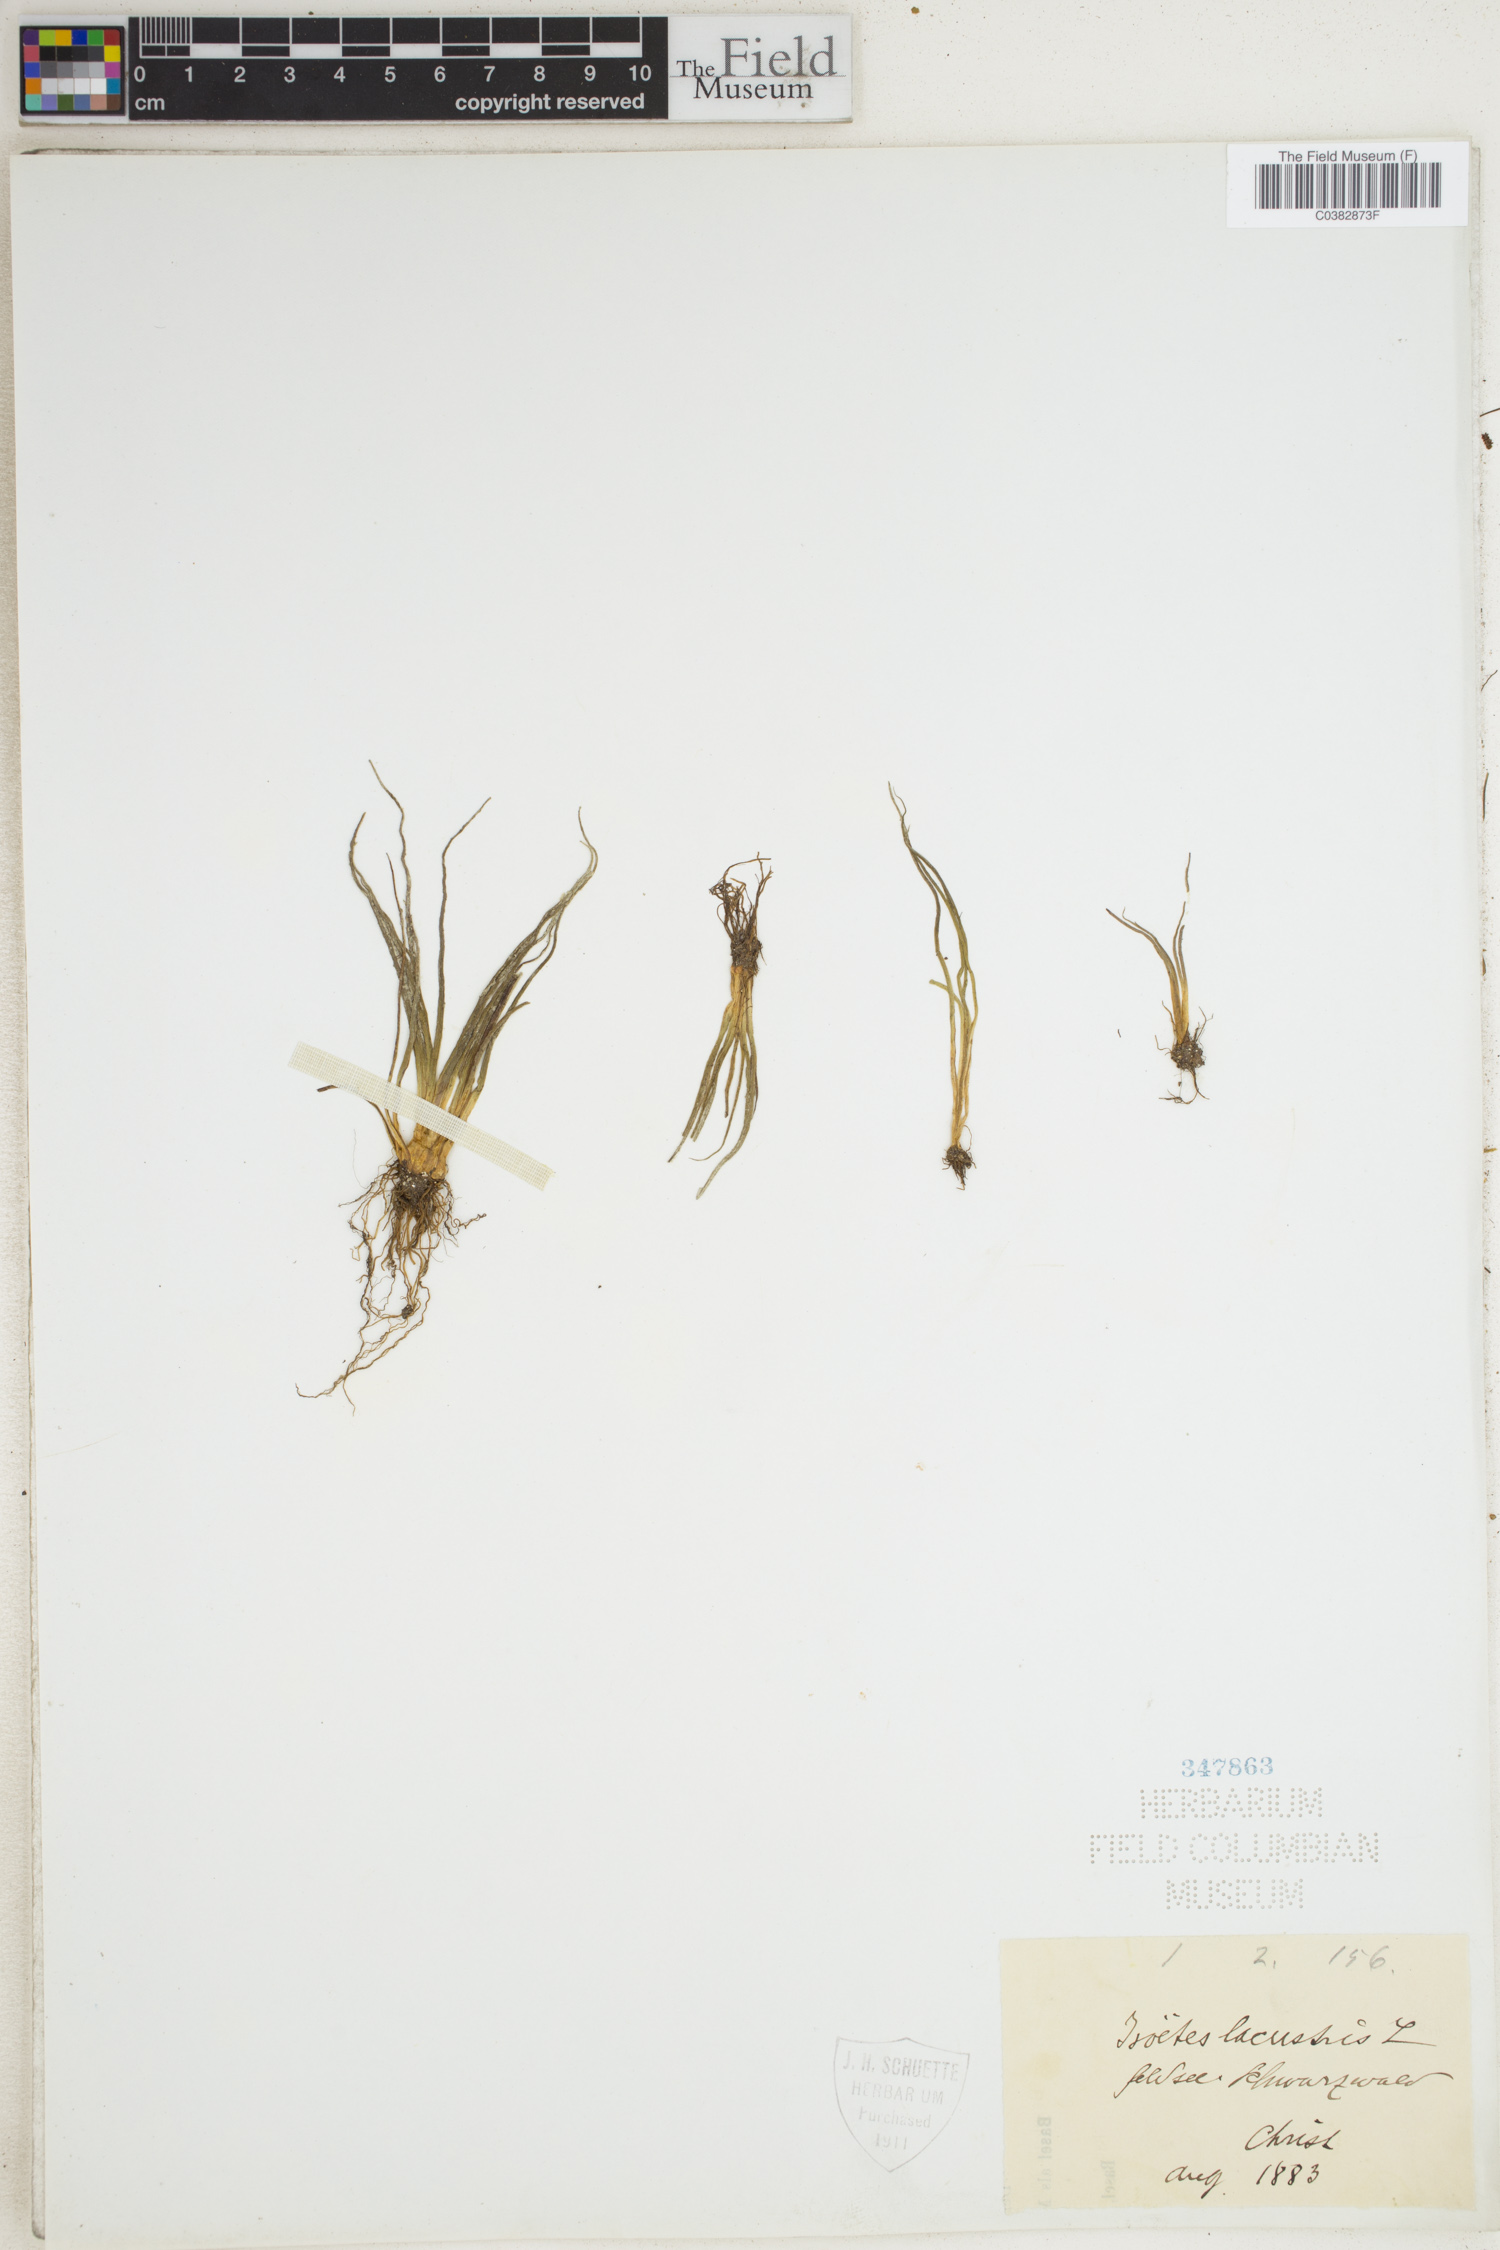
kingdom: Plantae
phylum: Tracheophyta
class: Lycopodiopsida
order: Isoetales
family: Isoetaceae
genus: Isoetes
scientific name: Isoetes lacustris
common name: Common quillwort
